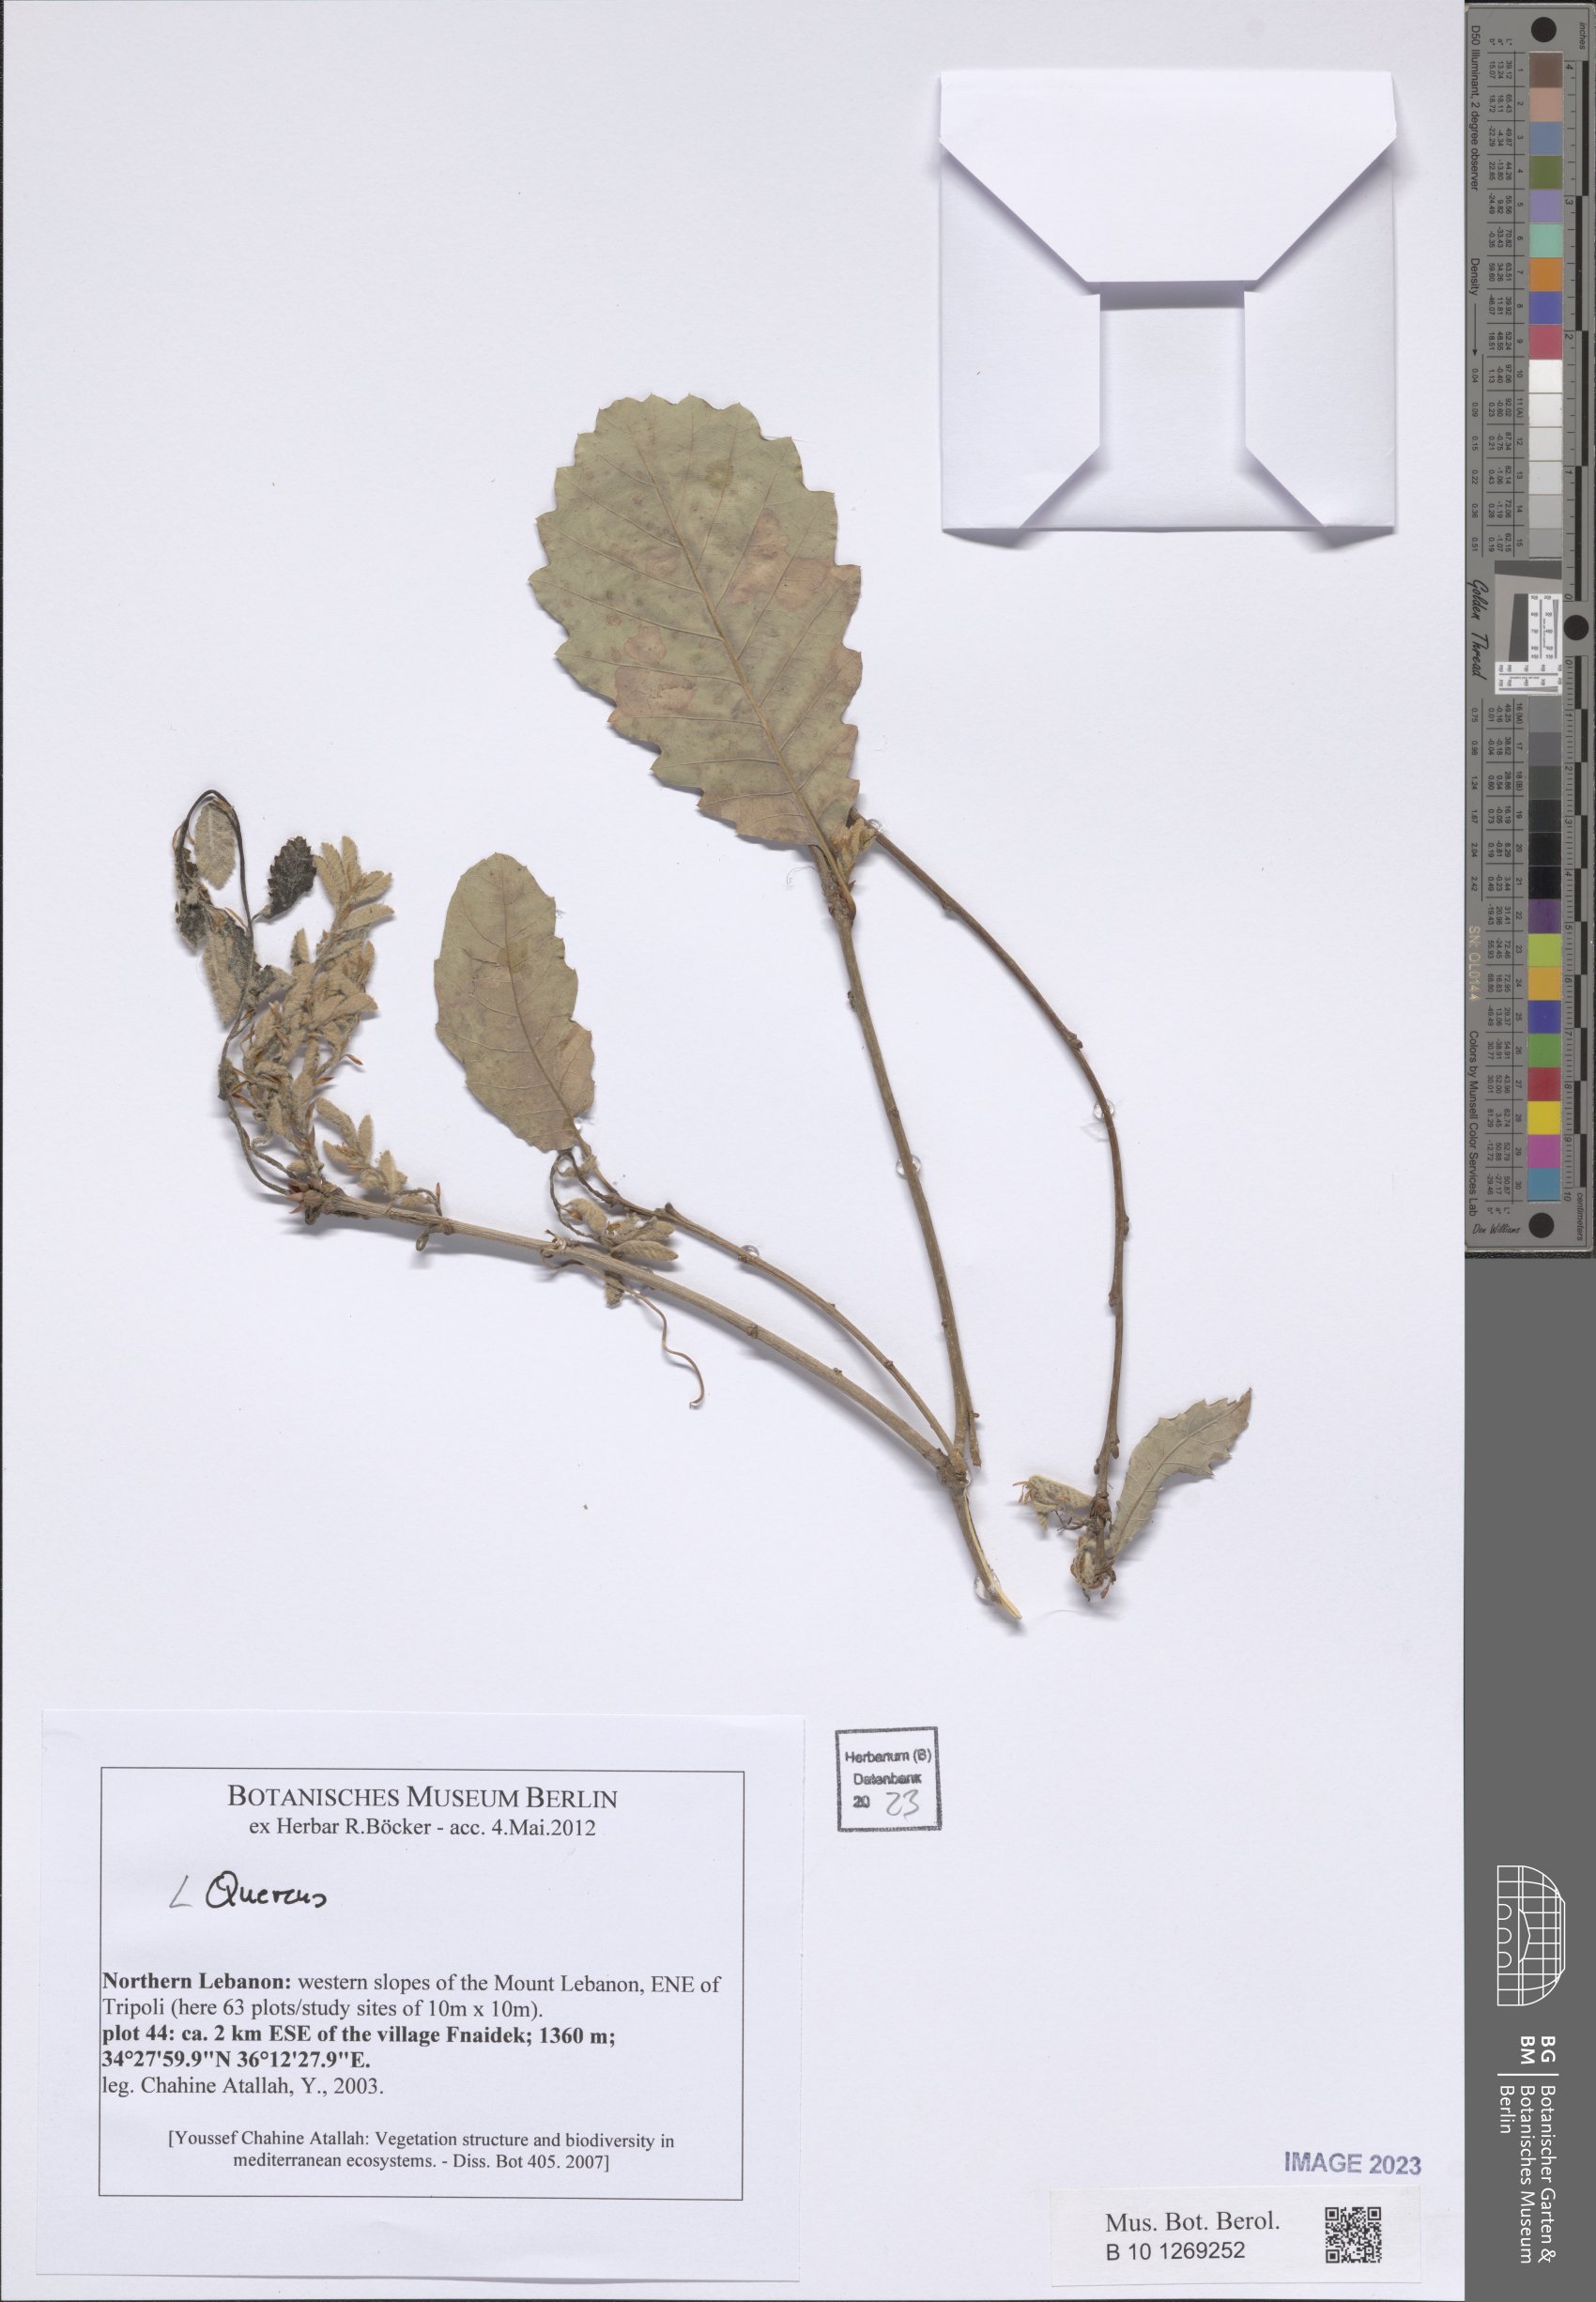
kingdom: Plantae
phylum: Tracheophyta
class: Magnoliopsida
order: Fagales
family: Fagaceae
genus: Quercus
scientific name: Quercus
